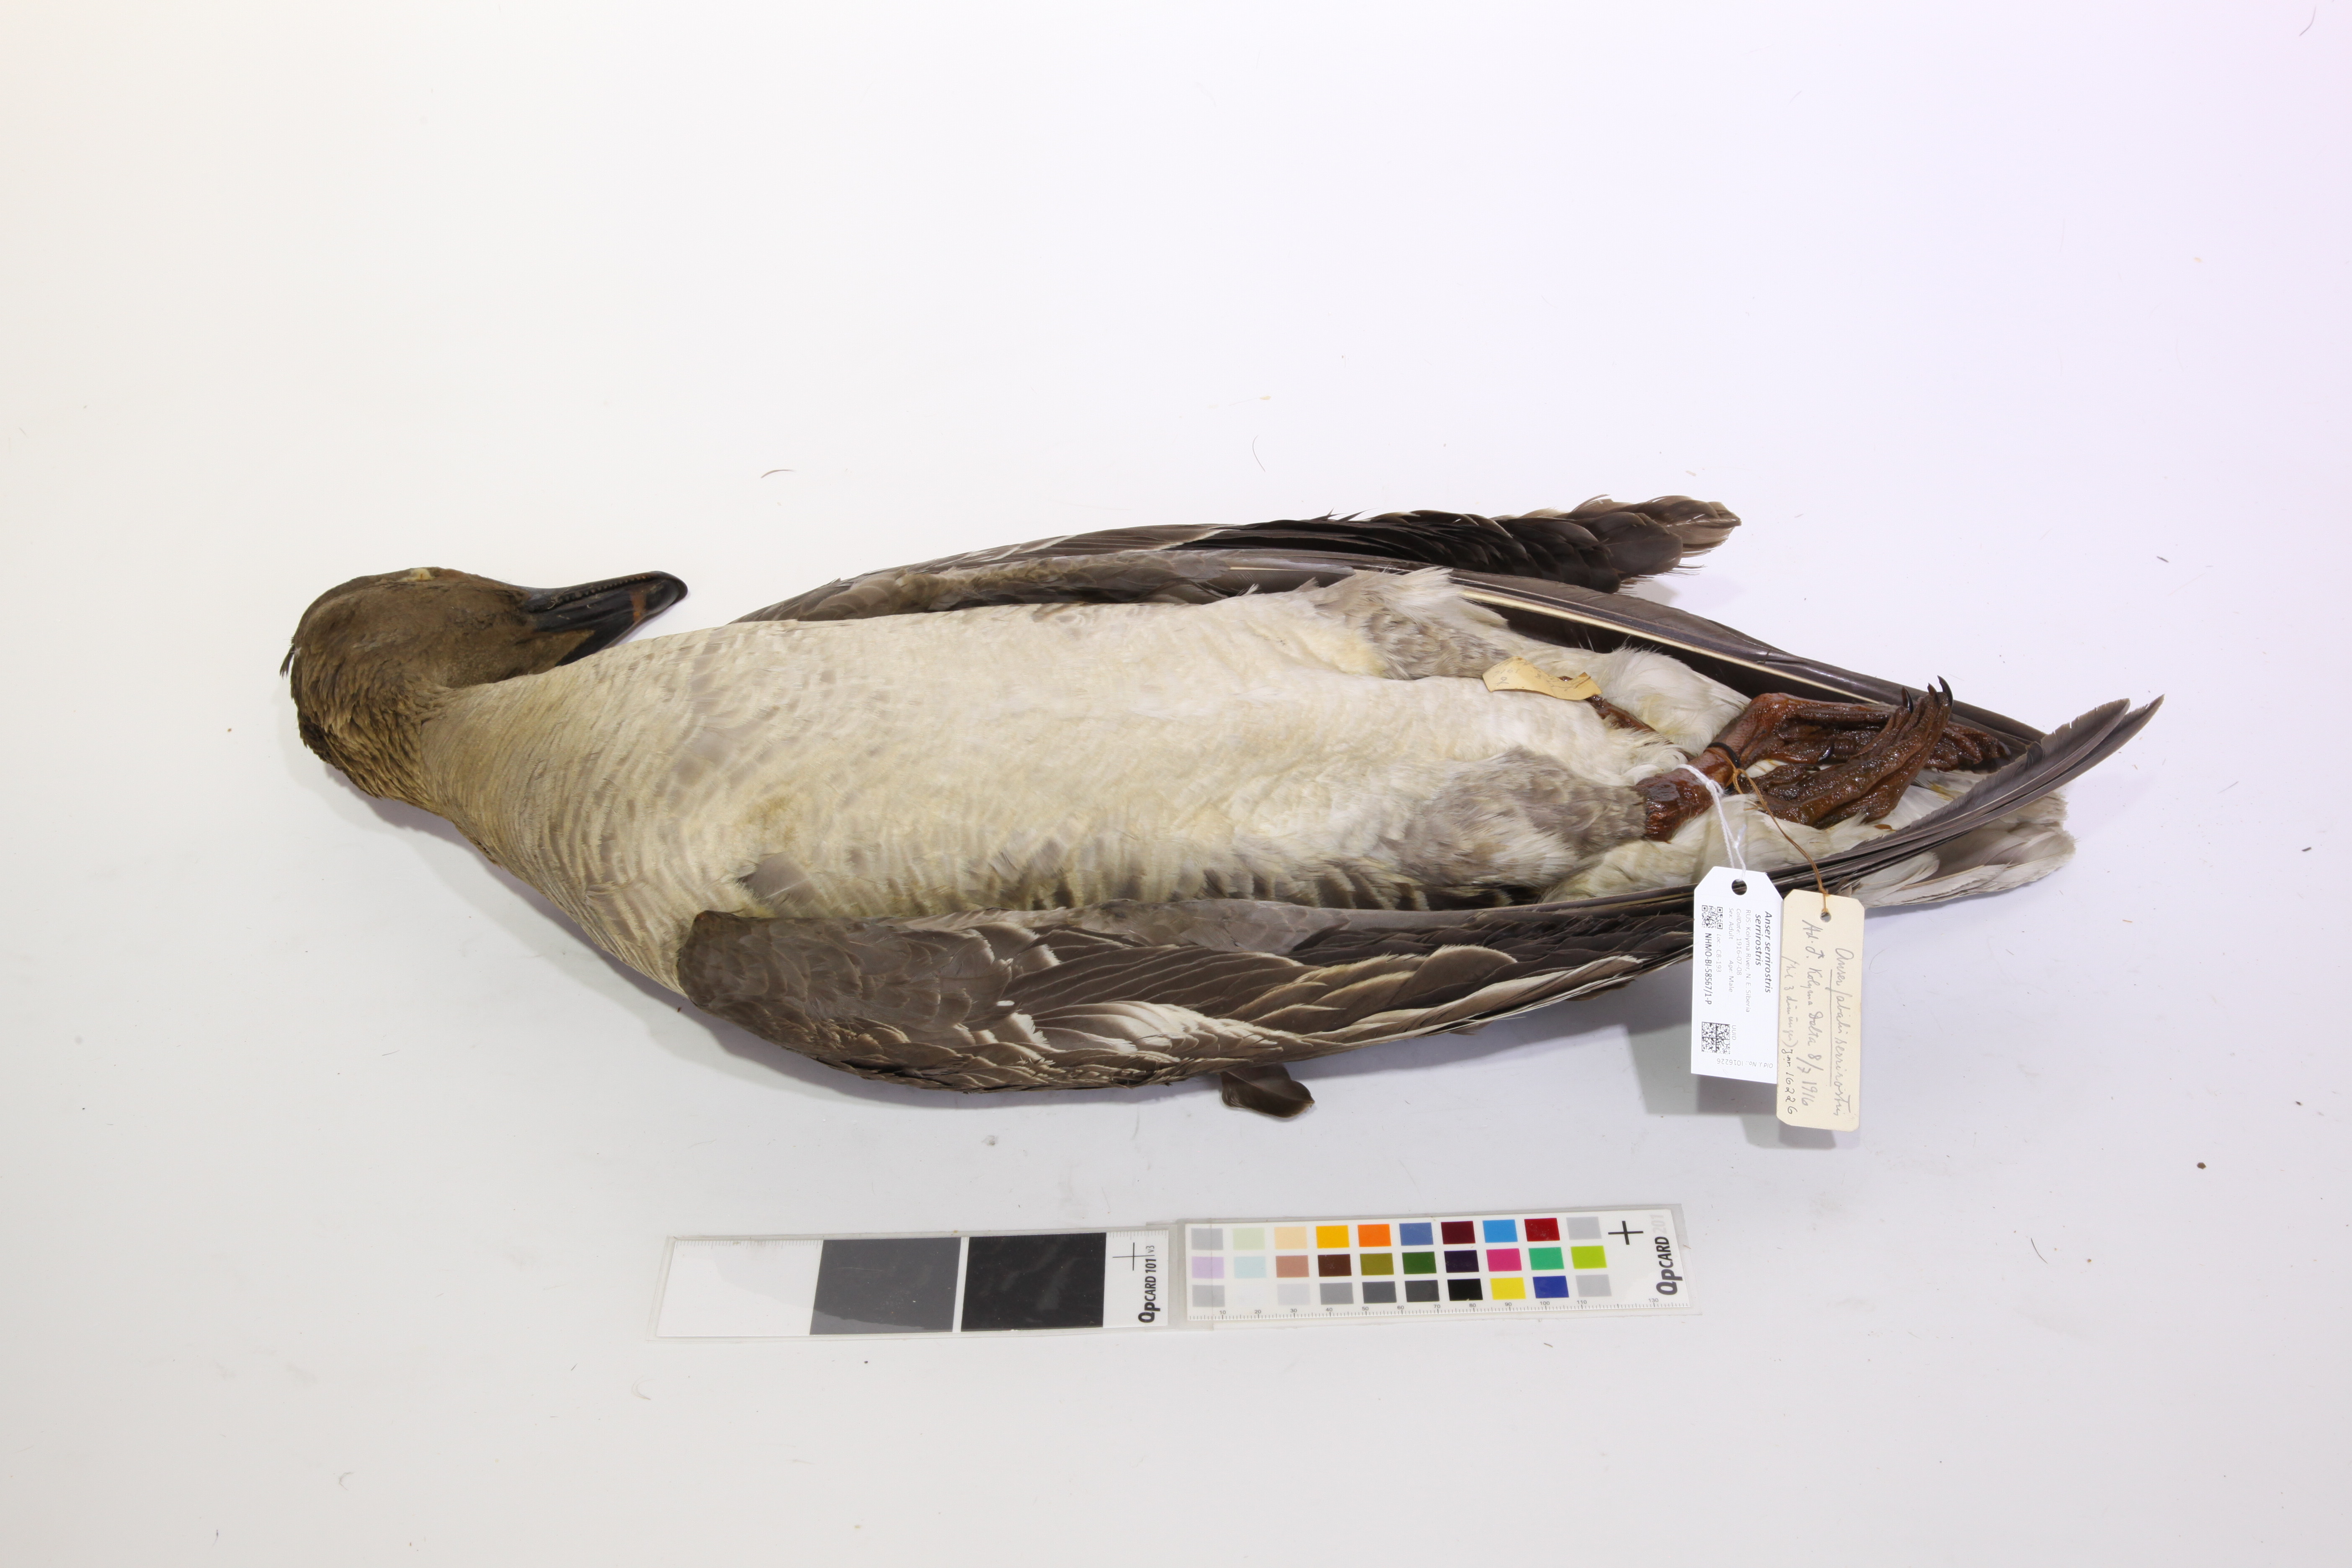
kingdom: Animalia
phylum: Chordata
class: Aves
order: Anseriformes
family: Anatidae
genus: Anser
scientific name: Anser serrirostris
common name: Tundra bean goose
